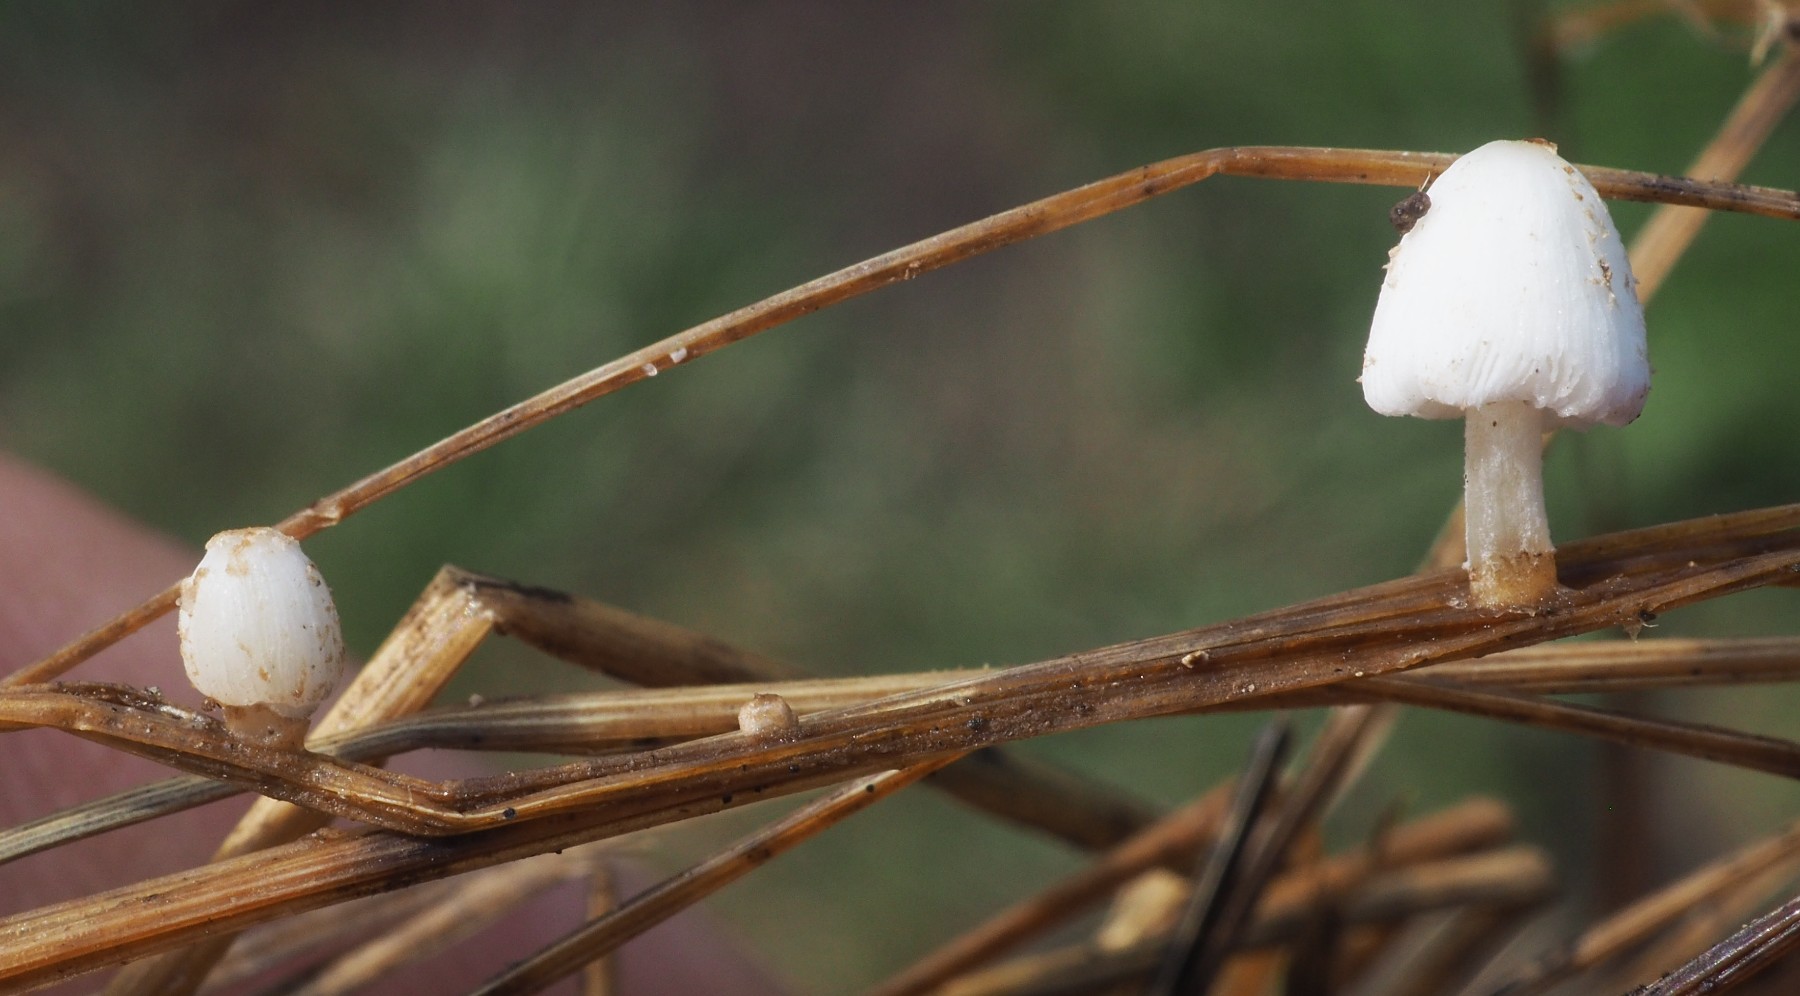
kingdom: Fungi
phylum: Basidiomycota
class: Agaricomycetes
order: Agaricales
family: Psathyrellaceae
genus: Coprinopsis
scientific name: Coprinopsis phaeospora
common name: fælled-blækhat
